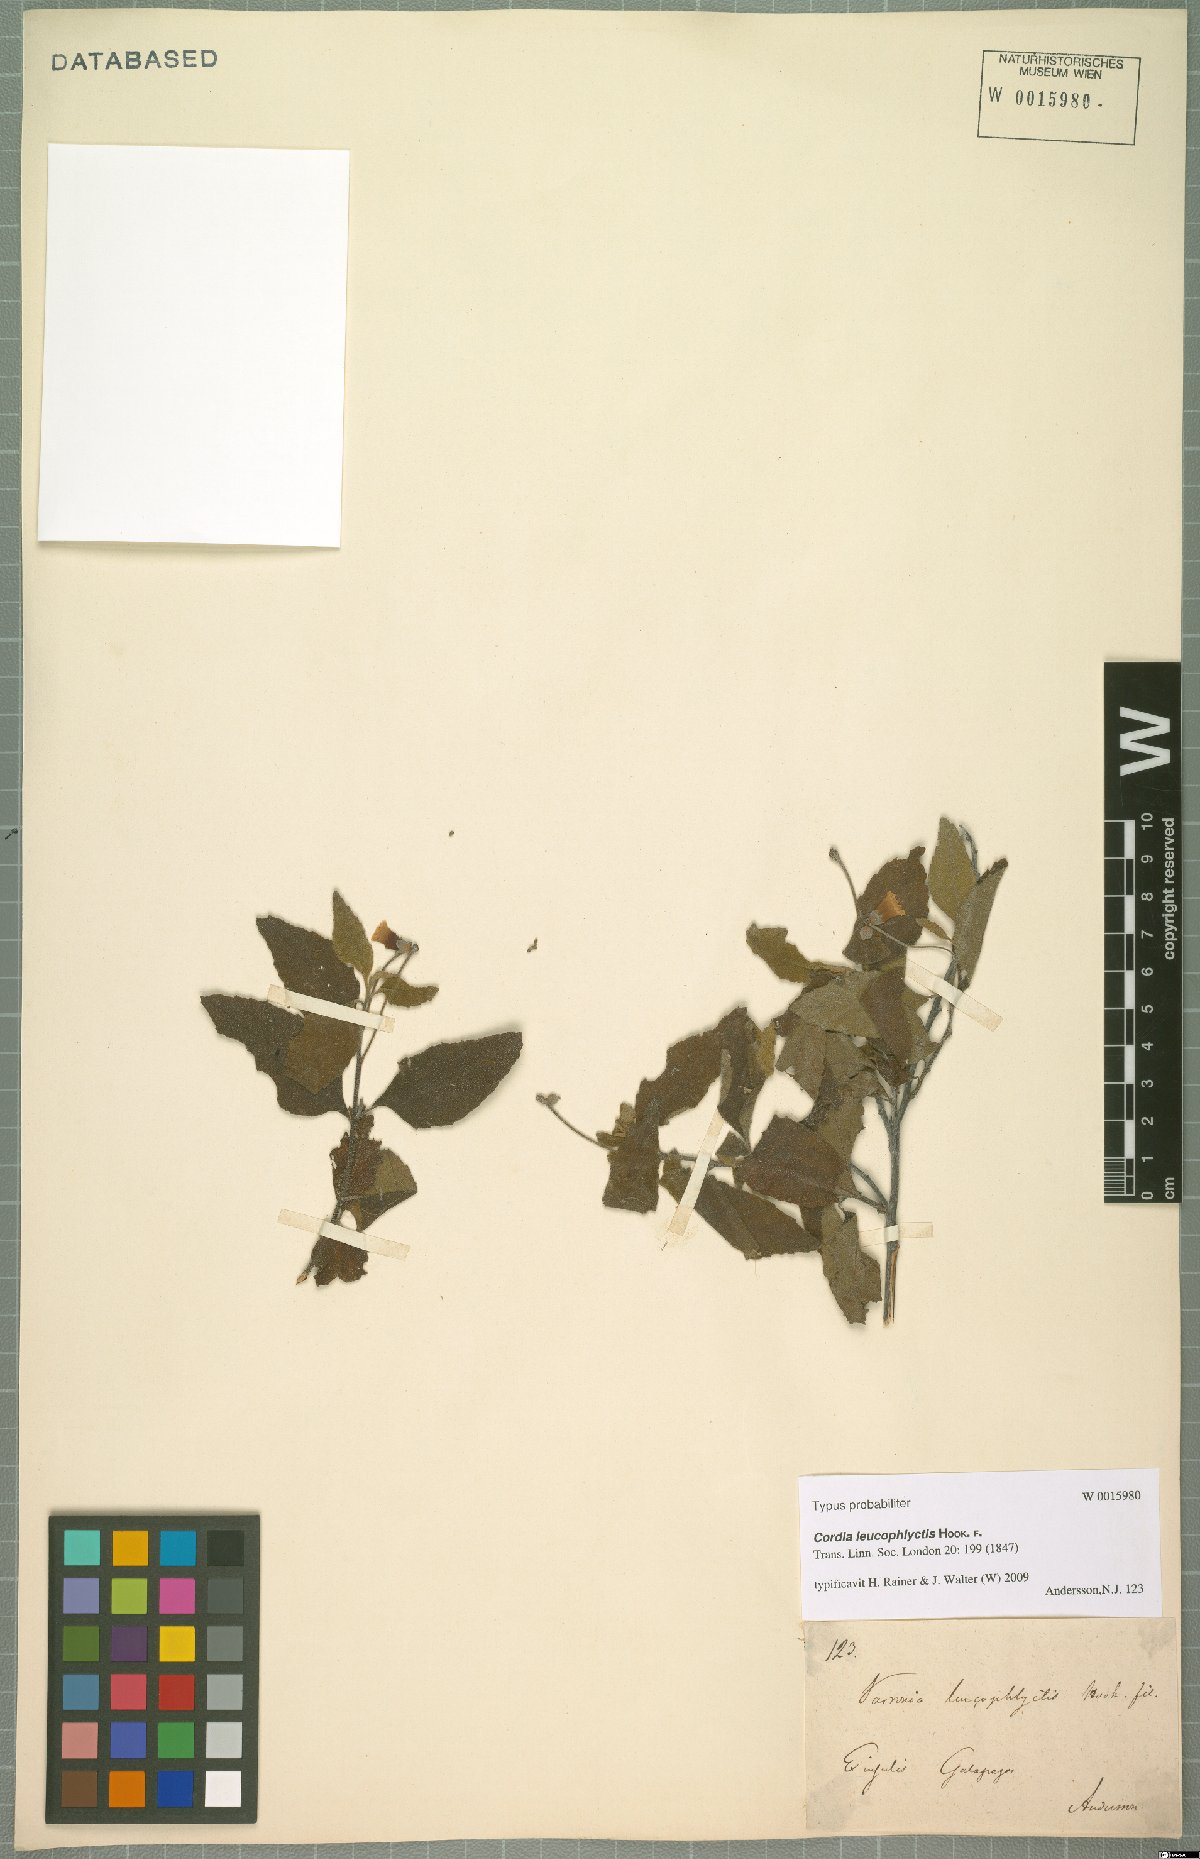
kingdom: Plantae
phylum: Tracheophyta
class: Magnoliopsida
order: Boraginales
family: Cordiaceae
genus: Varronia
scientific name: Varronia leucophlyctis
